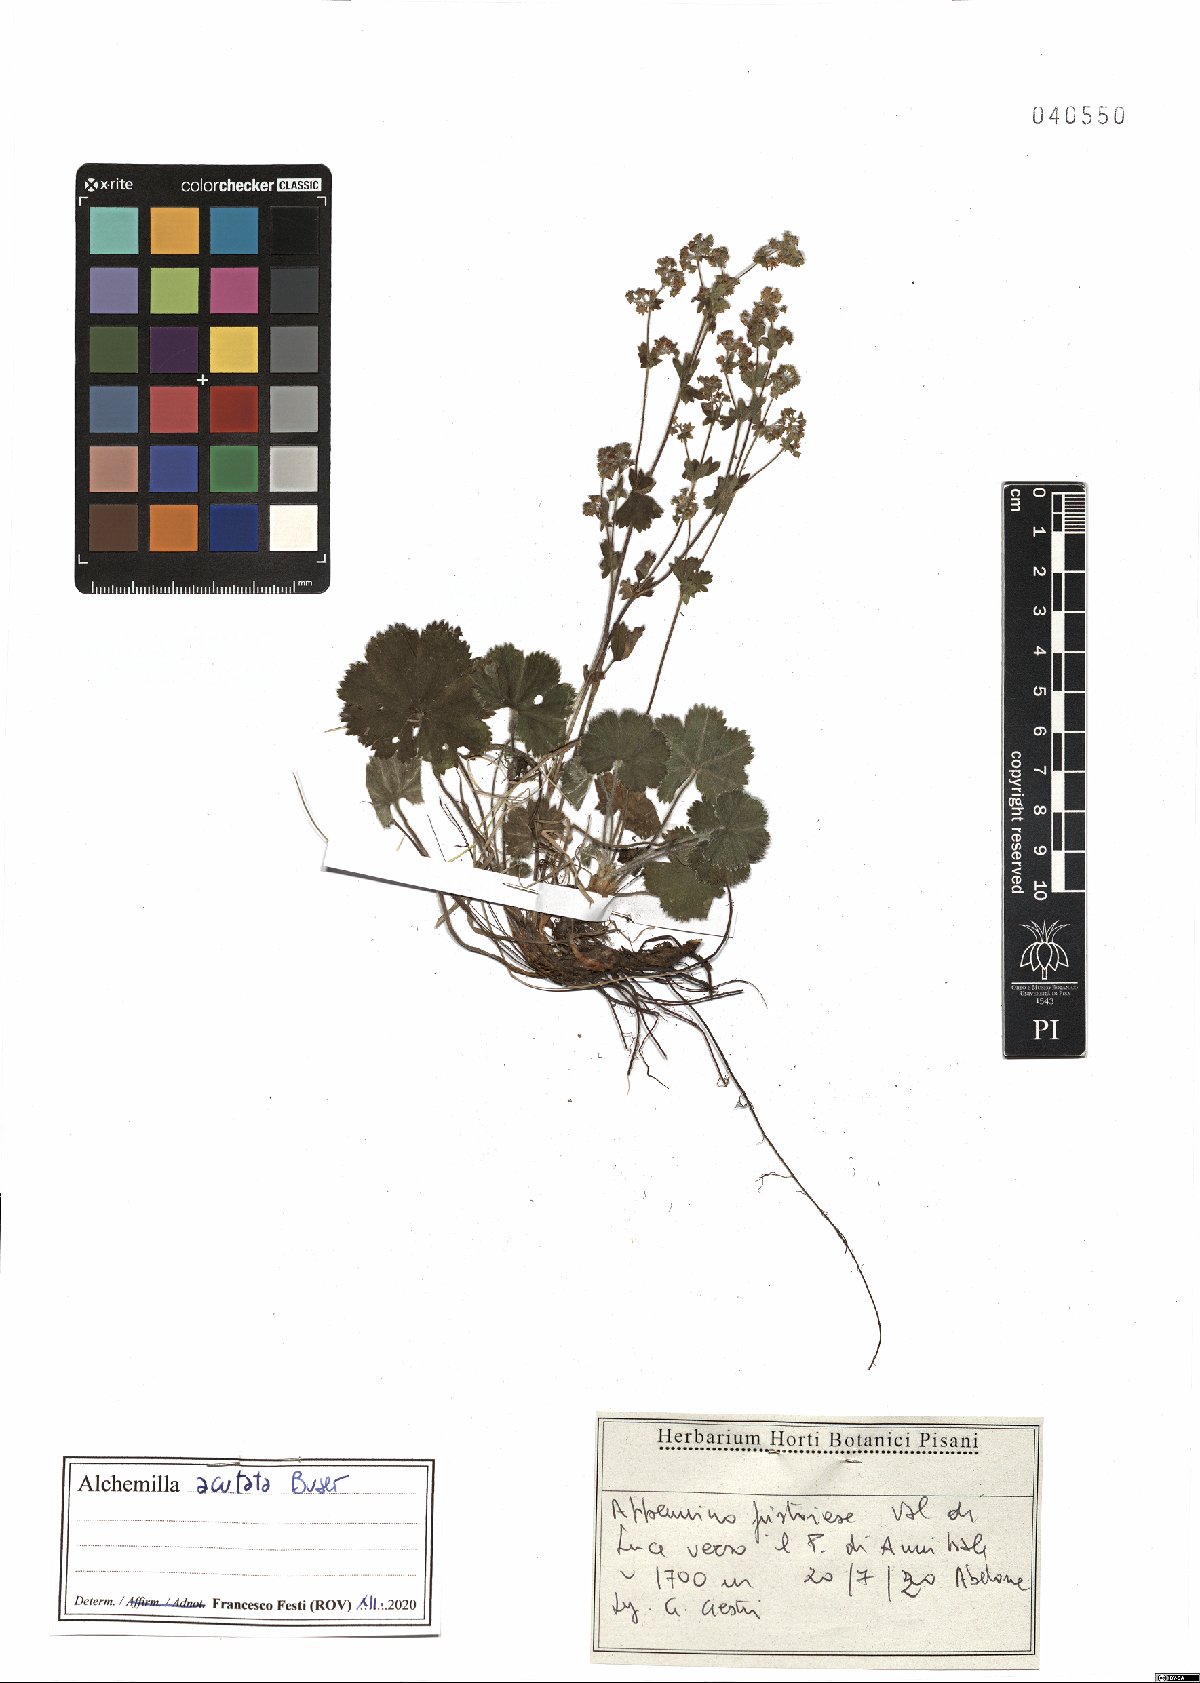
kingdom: Plantae
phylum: Tracheophyta
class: Magnoliopsida
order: Rosales
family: Rosaceae
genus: Alchemilla
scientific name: Alchemilla acutata
